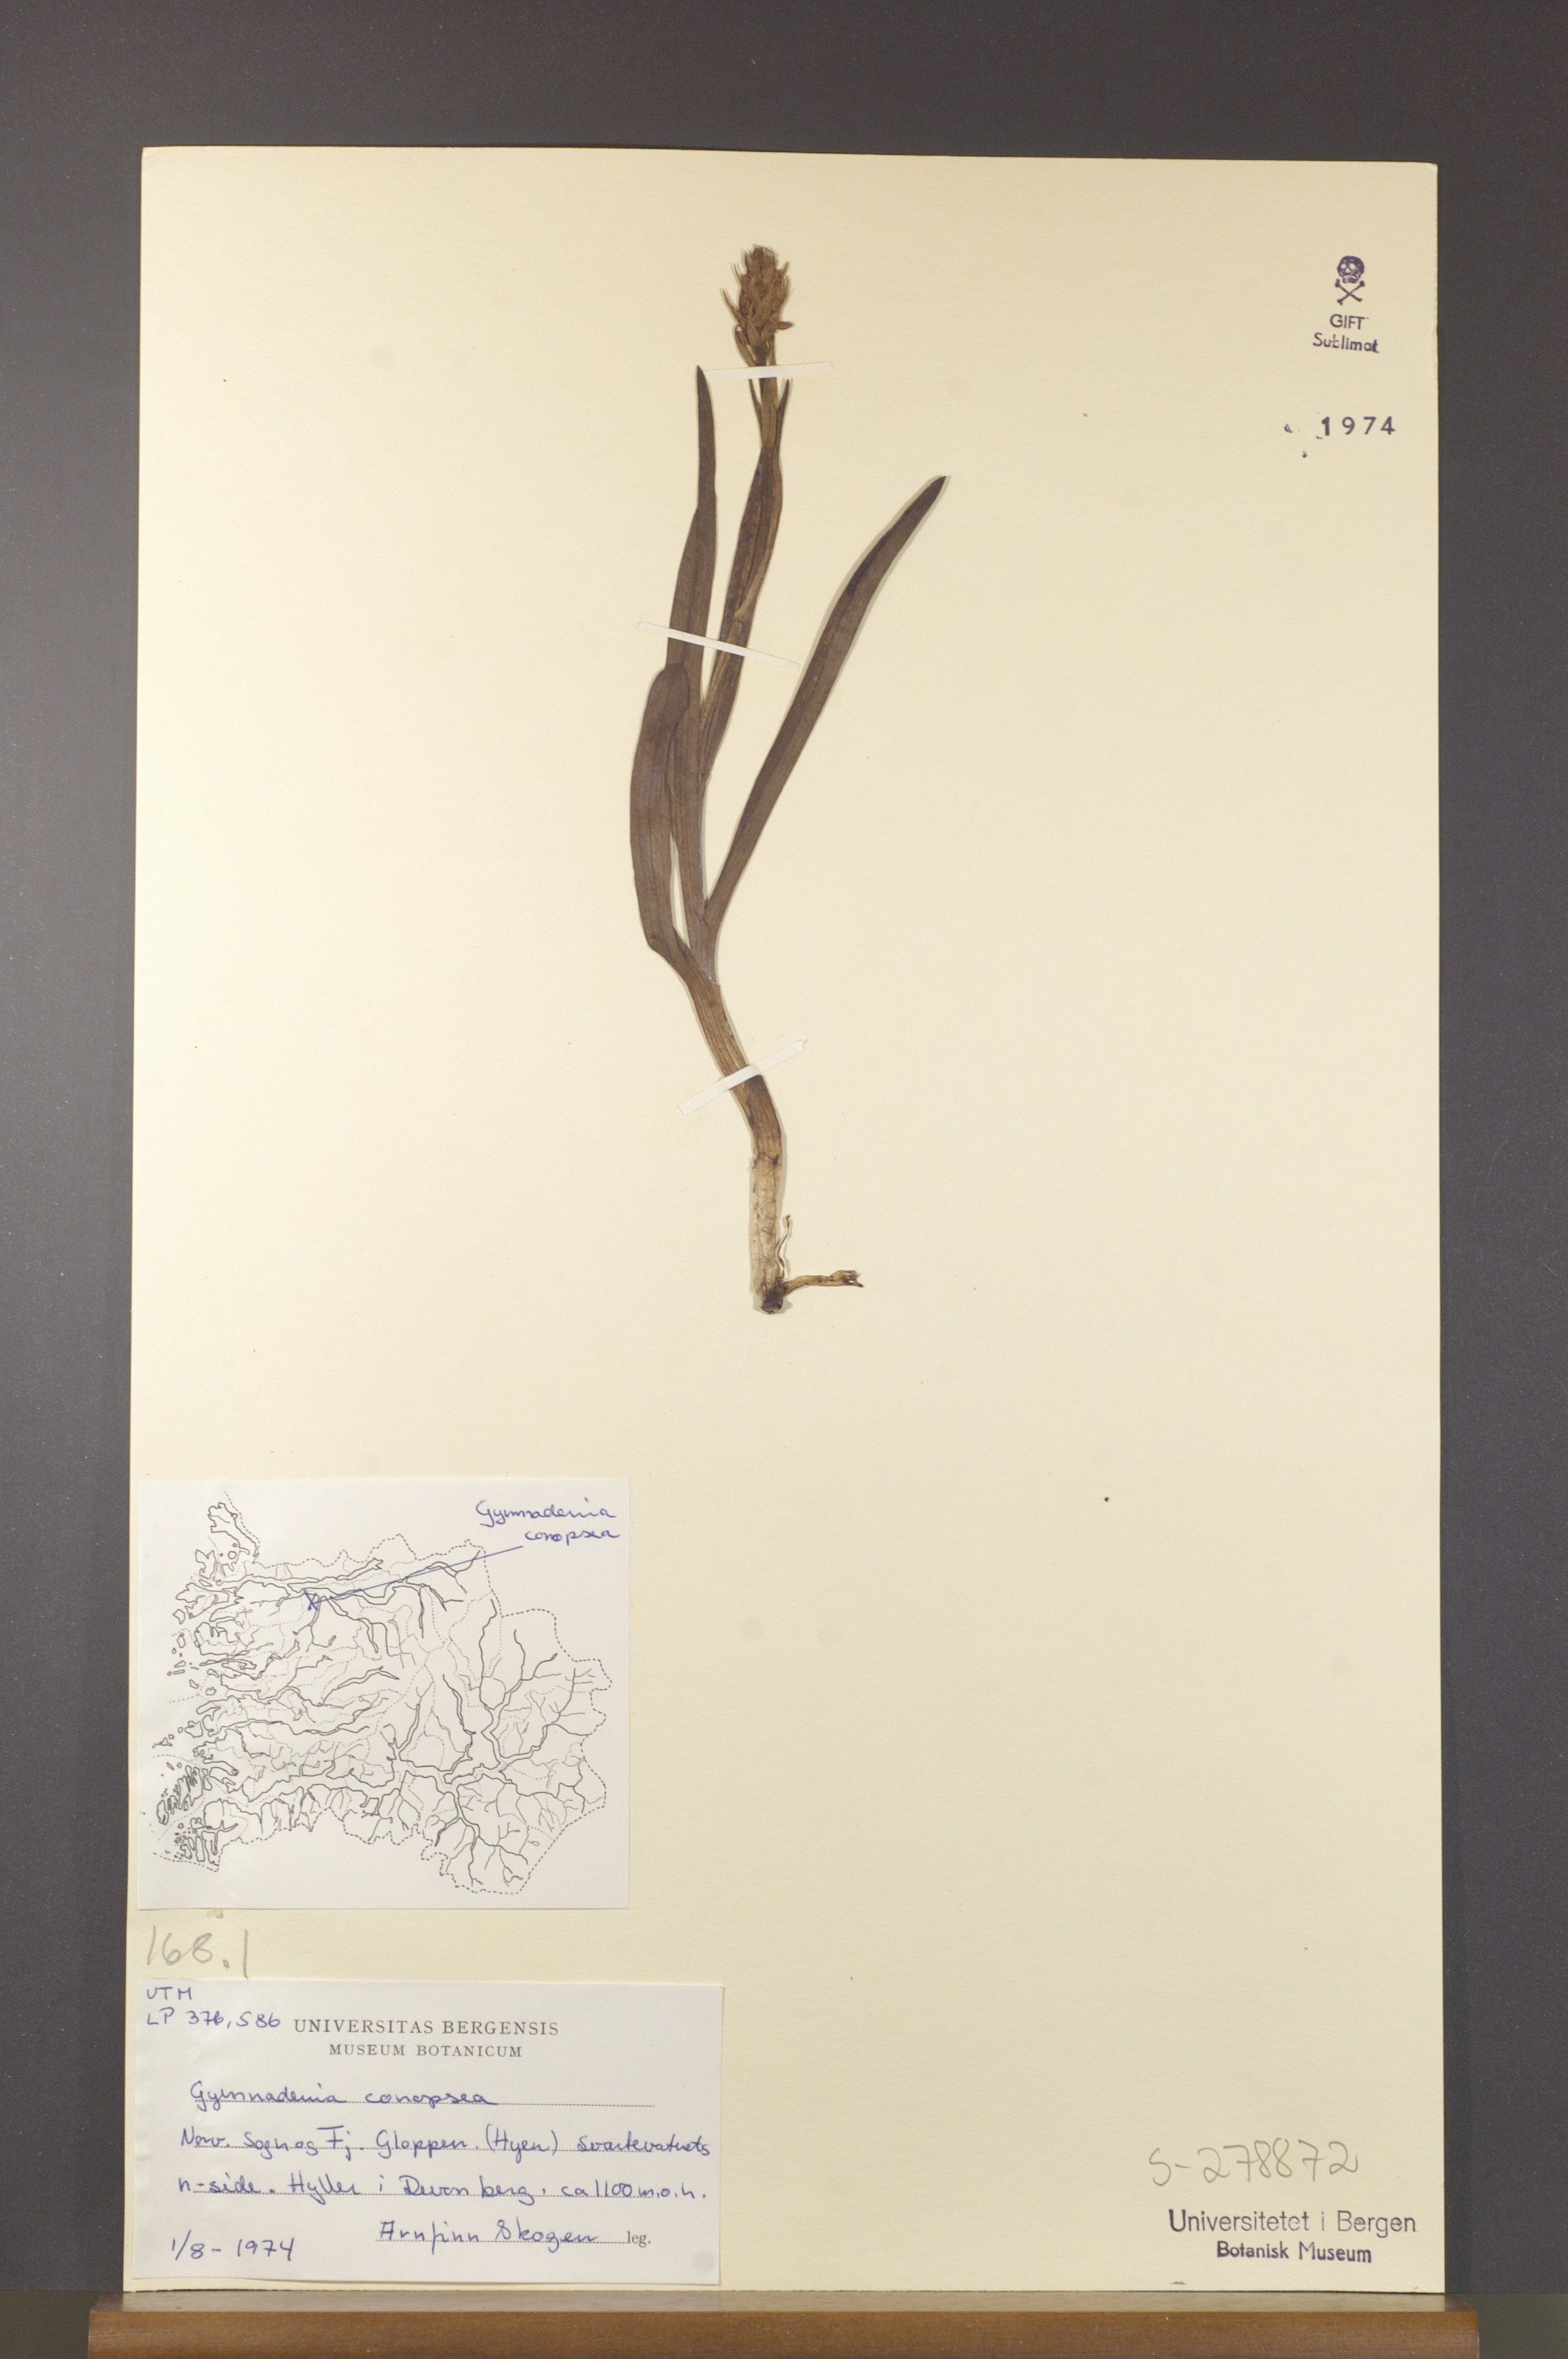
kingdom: Plantae
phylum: Tracheophyta
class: Liliopsida
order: Asparagales
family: Orchidaceae
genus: Gymnadenia
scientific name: Gymnadenia conopsea
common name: Fragrant orchid
